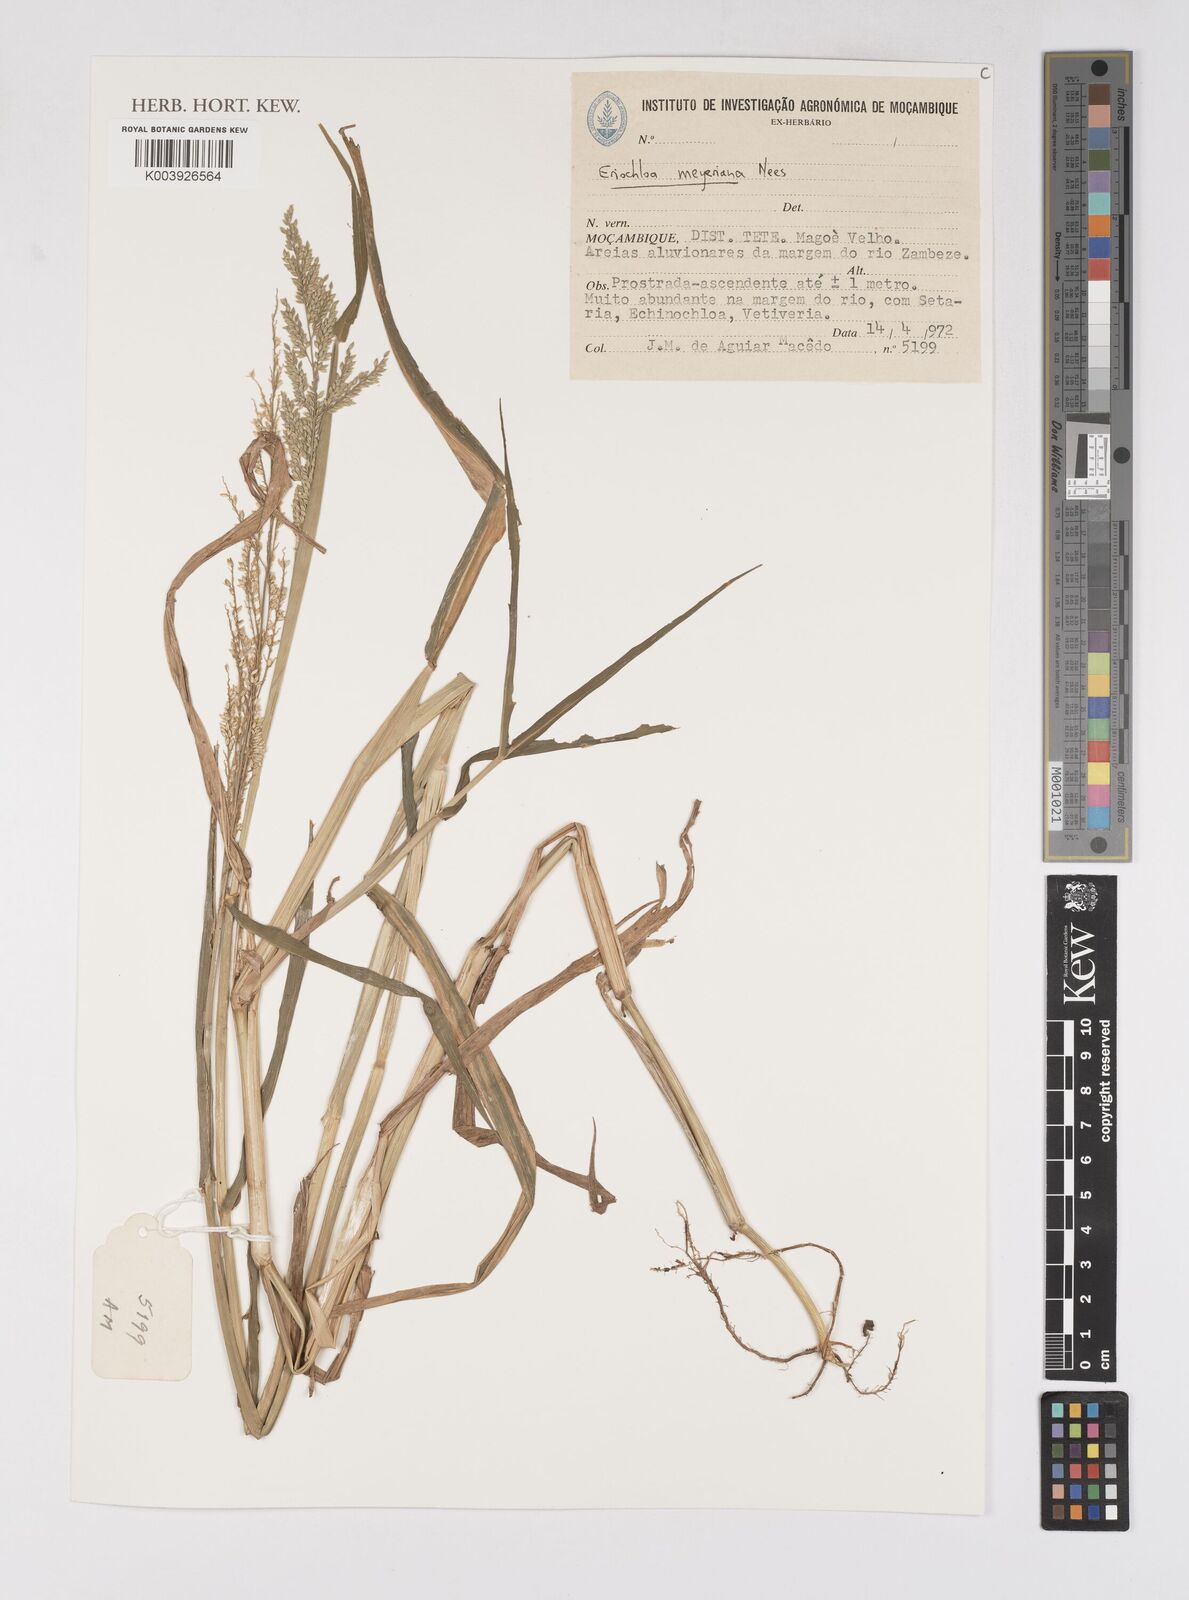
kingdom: Plantae
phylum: Tracheophyta
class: Liliopsida
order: Poales
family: Poaceae
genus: Eriochloa
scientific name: Eriochloa meyeriana
